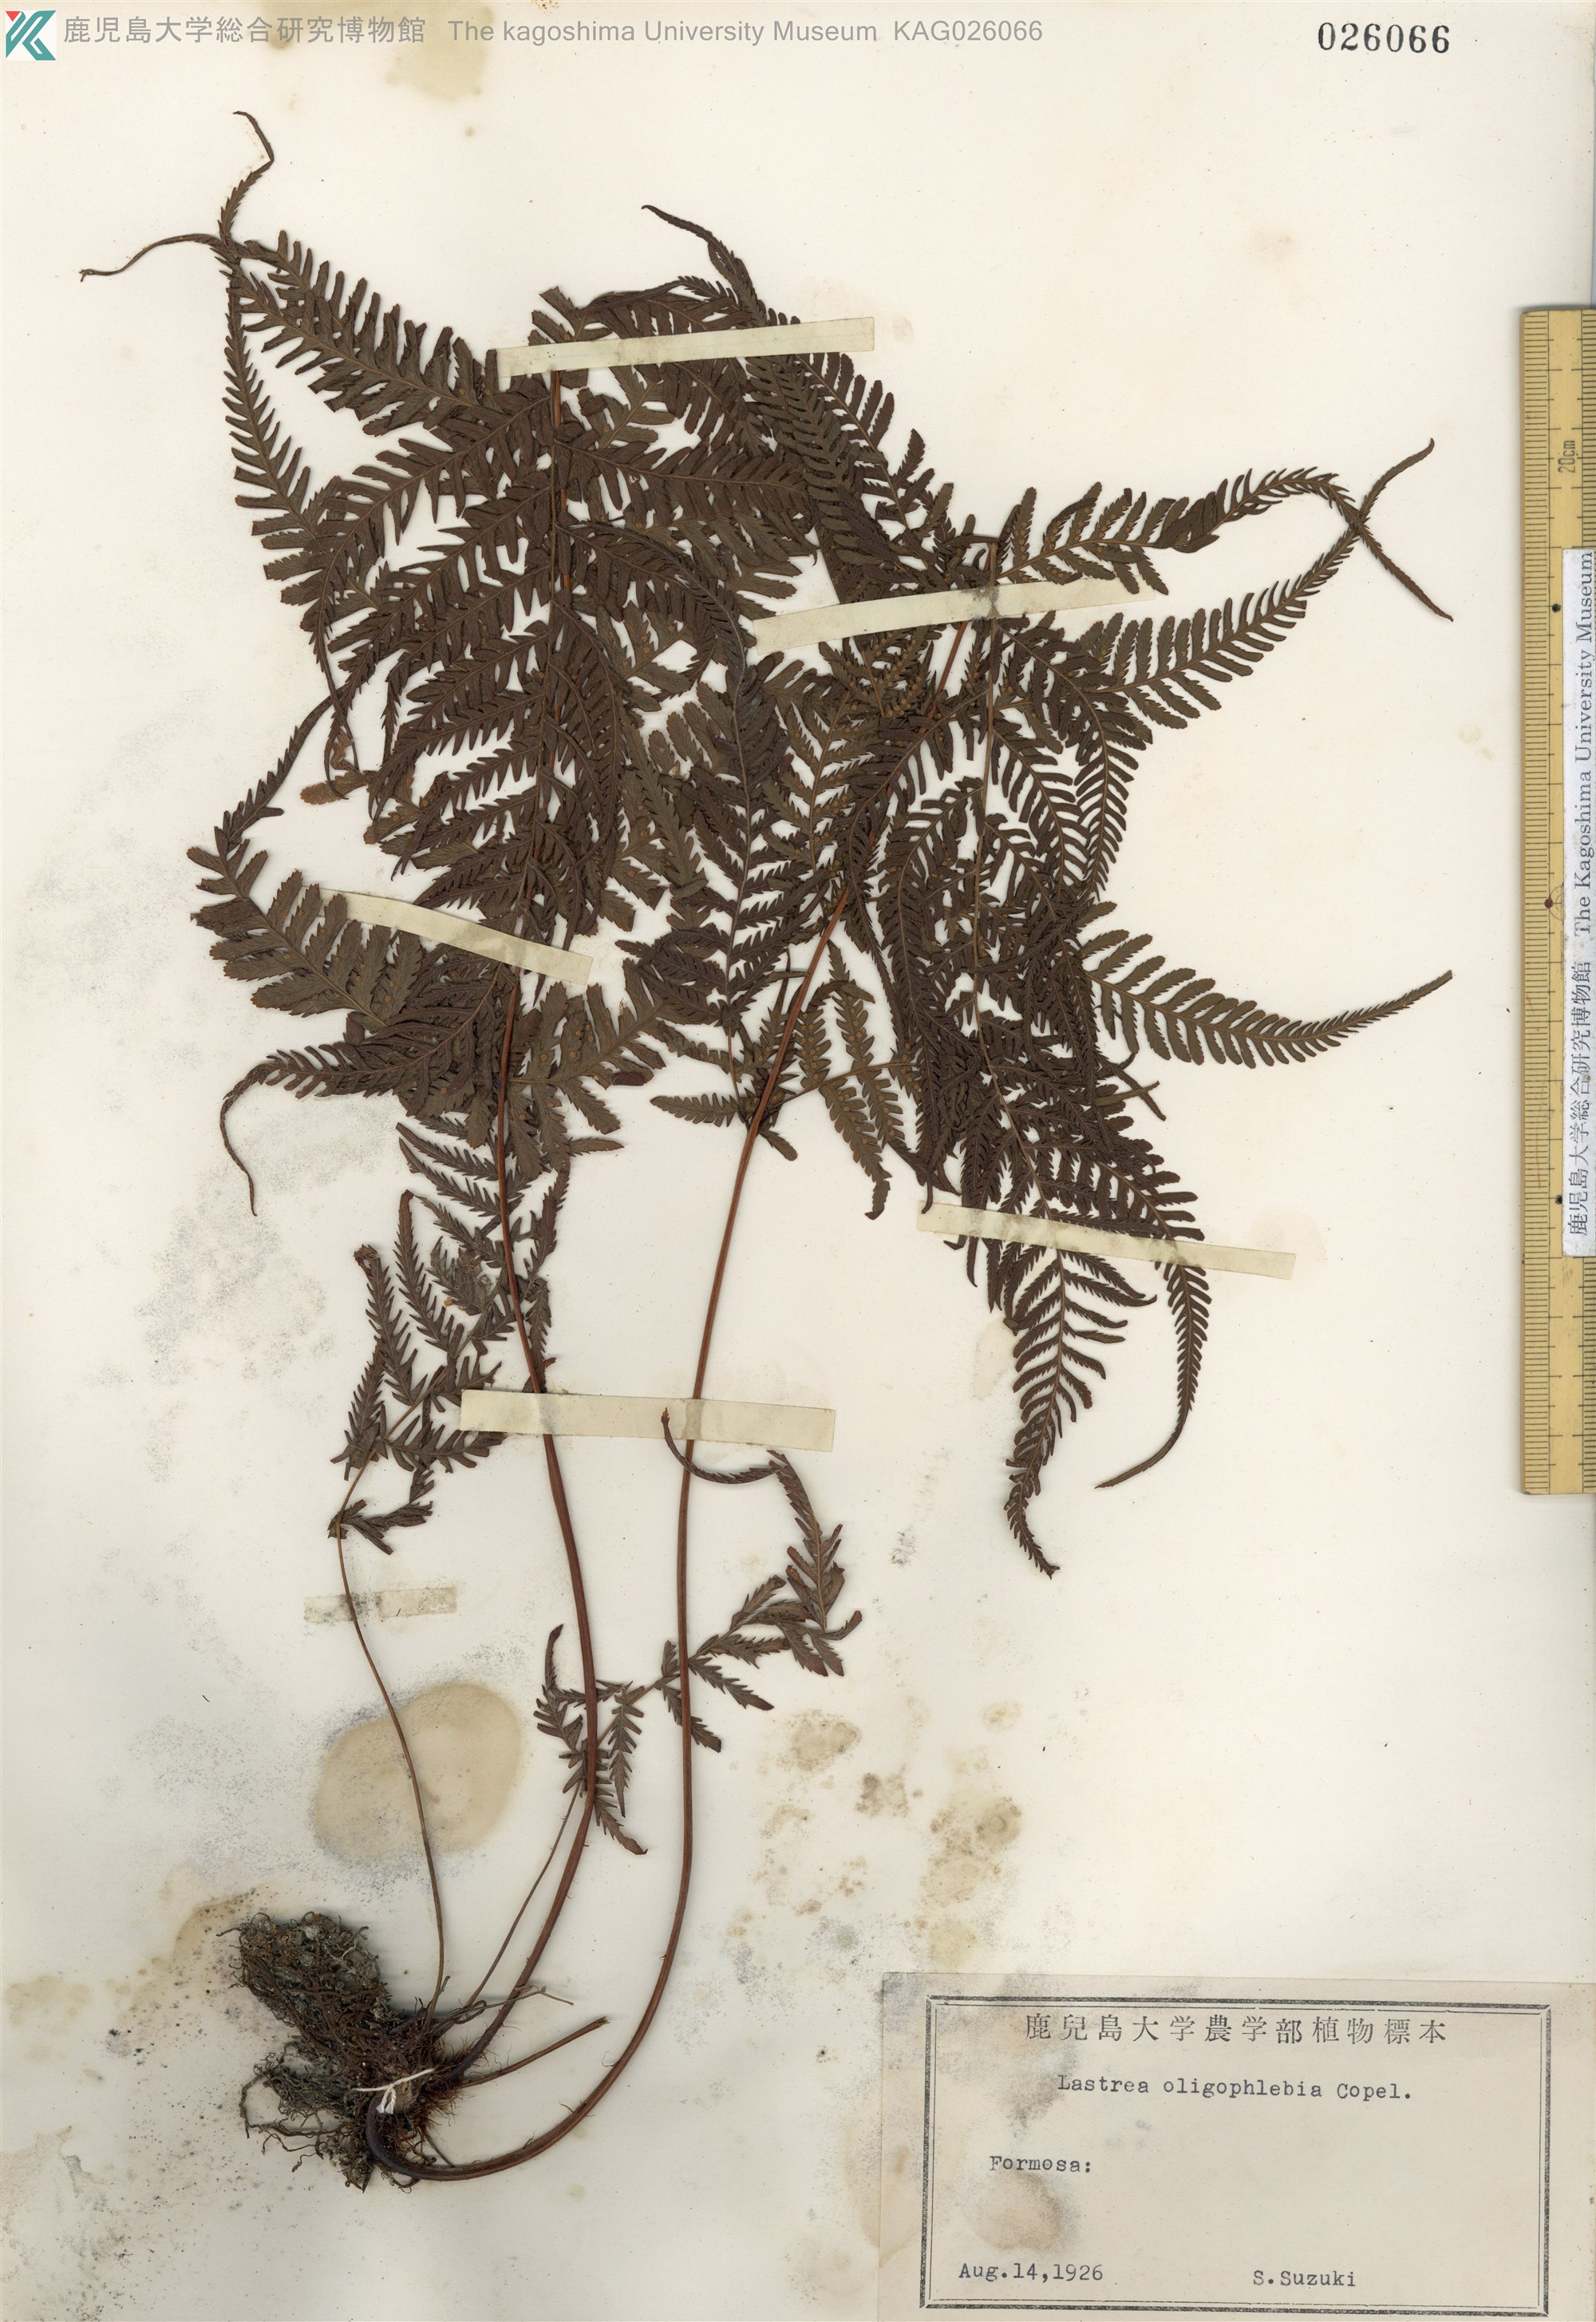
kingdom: Plantae
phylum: Tracheophyta
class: Polypodiopsida
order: Polypodiales
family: Thelypteridaceae
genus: Macrothelypteris
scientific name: Macrothelypteris oligophlebia
